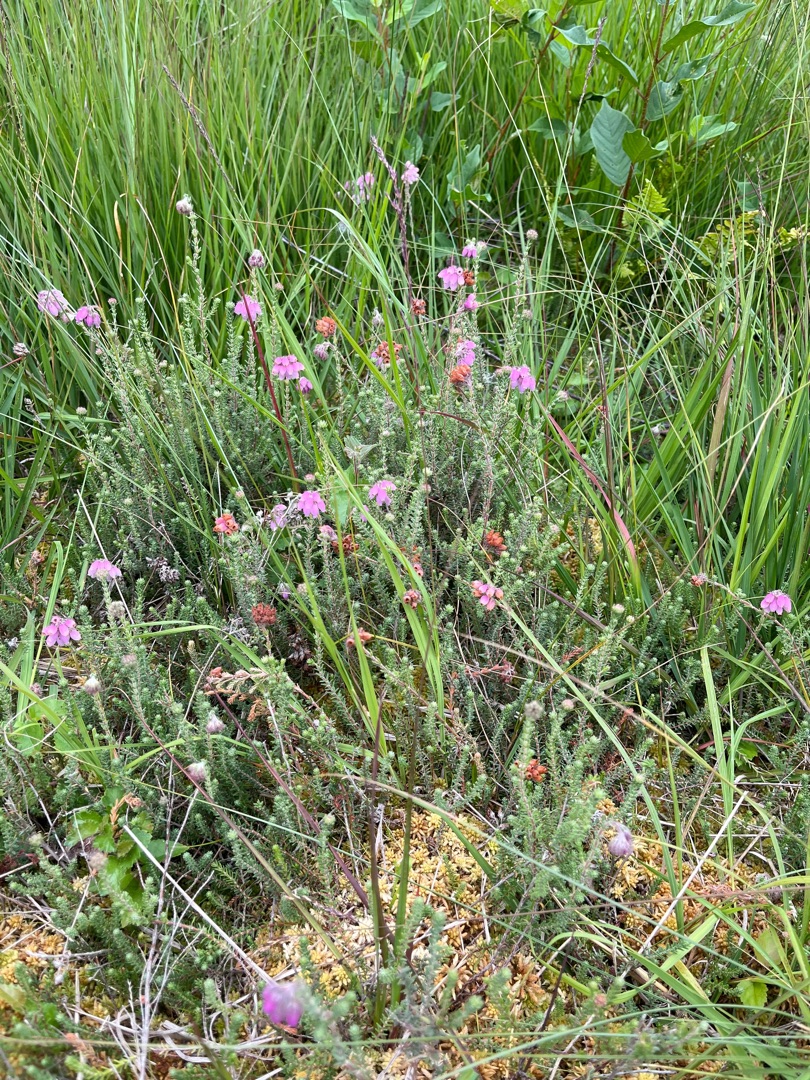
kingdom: Plantae
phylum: Tracheophyta
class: Magnoliopsida
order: Ericales
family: Ericaceae
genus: Erica
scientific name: Erica tetralix
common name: Klokkelyng
